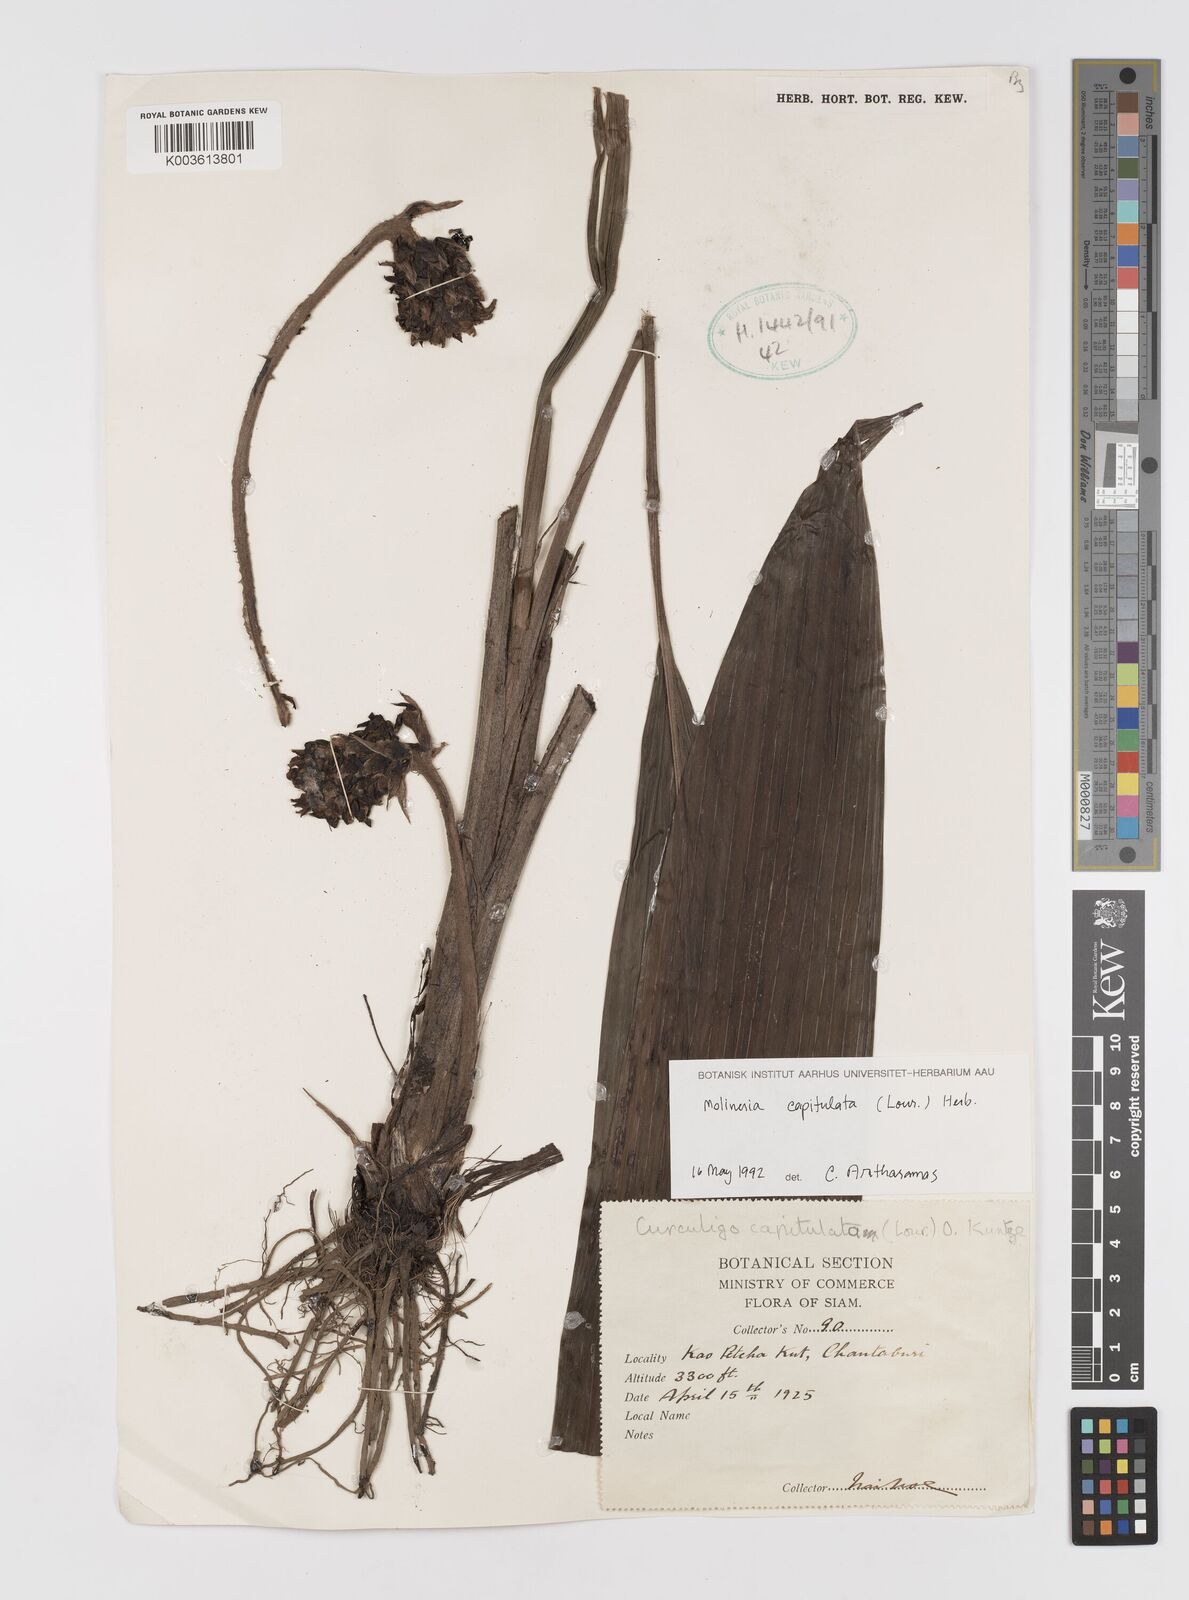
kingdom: Plantae
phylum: Tracheophyta
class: Liliopsida
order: Asparagales
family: Hypoxidaceae
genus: Curculigo
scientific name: Curculigo capitulata
